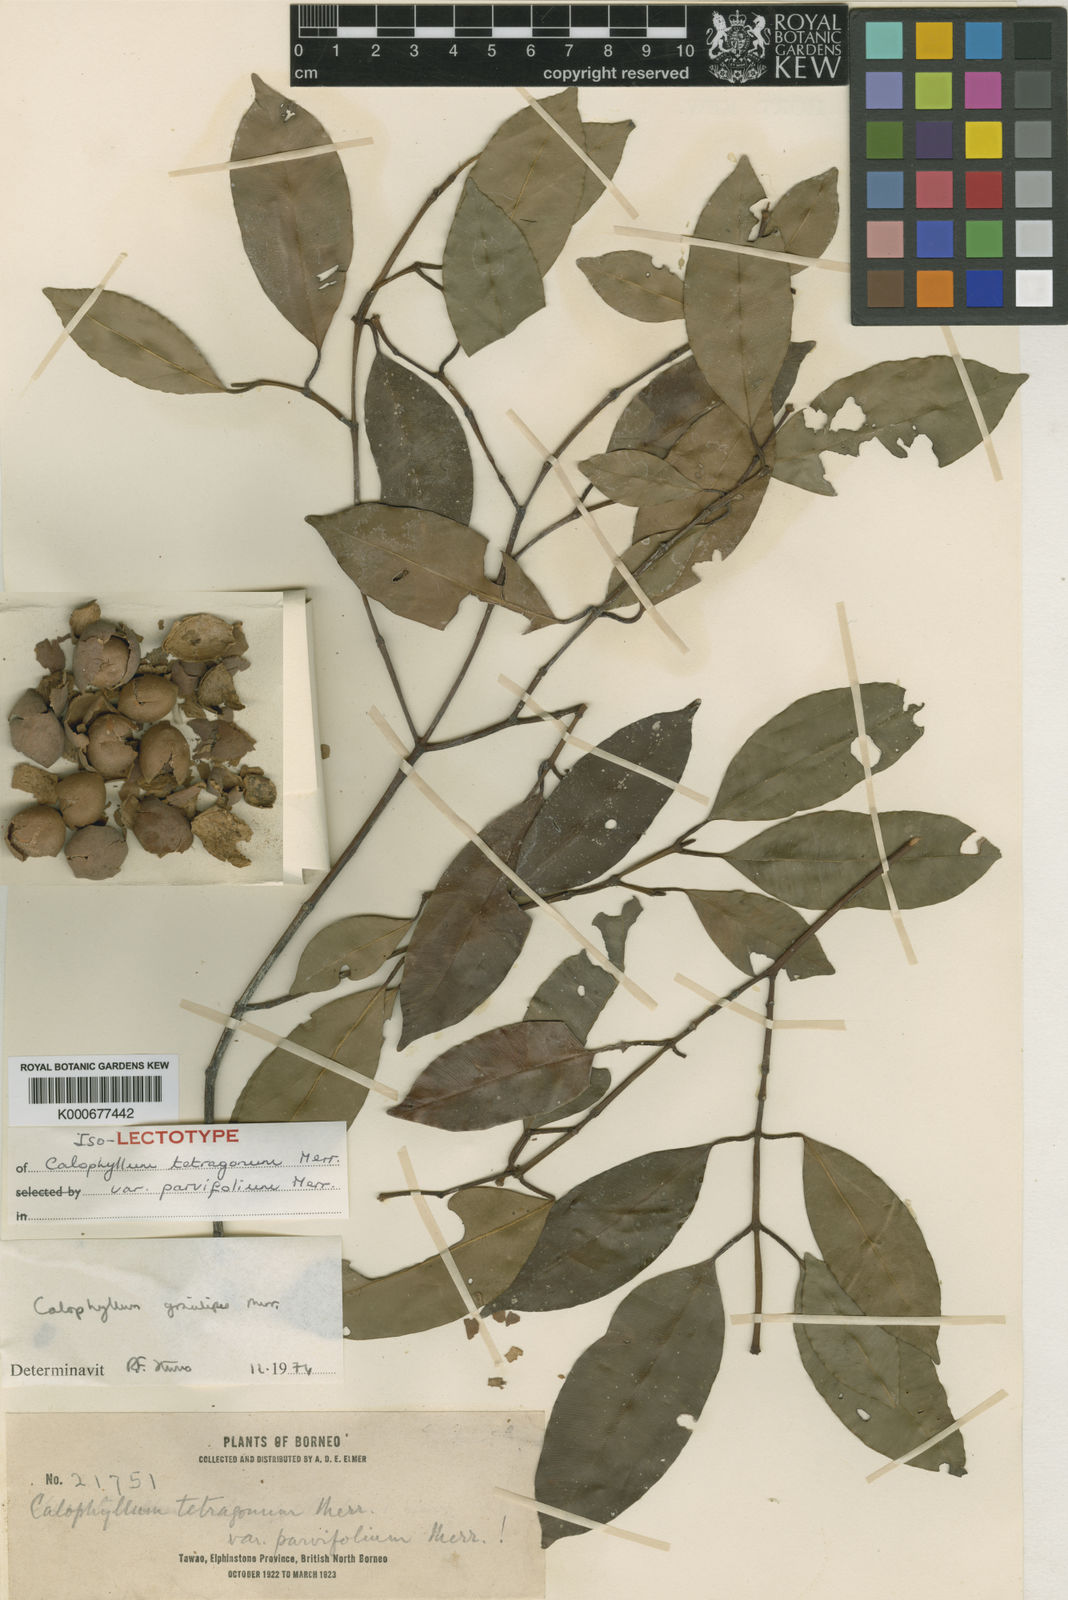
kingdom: Plantae
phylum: Tracheophyta
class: Magnoliopsida
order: Malpighiales
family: Calophyllaceae
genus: Calophyllum
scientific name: Calophyllum gracilipes
